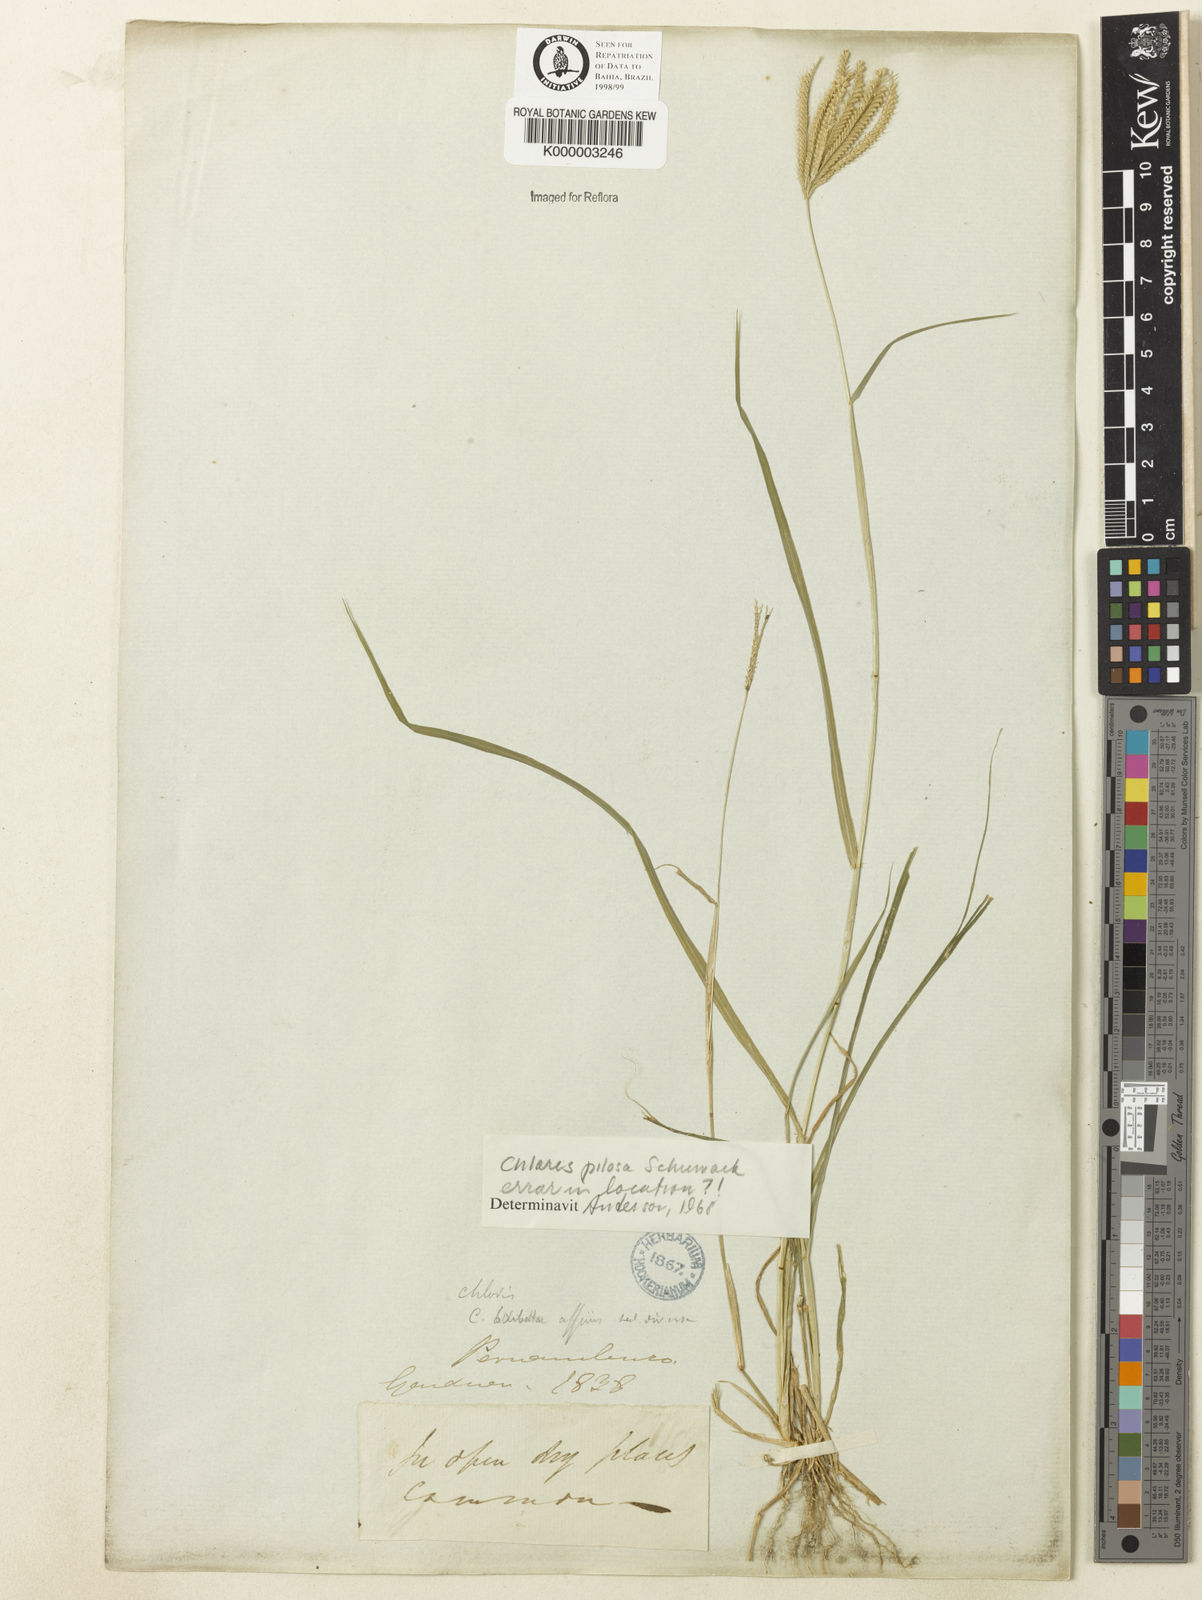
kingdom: Plantae
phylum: Tracheophyta
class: Liliopsida
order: Poales
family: Poaceae
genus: Chloris
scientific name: Chloris pilosa
